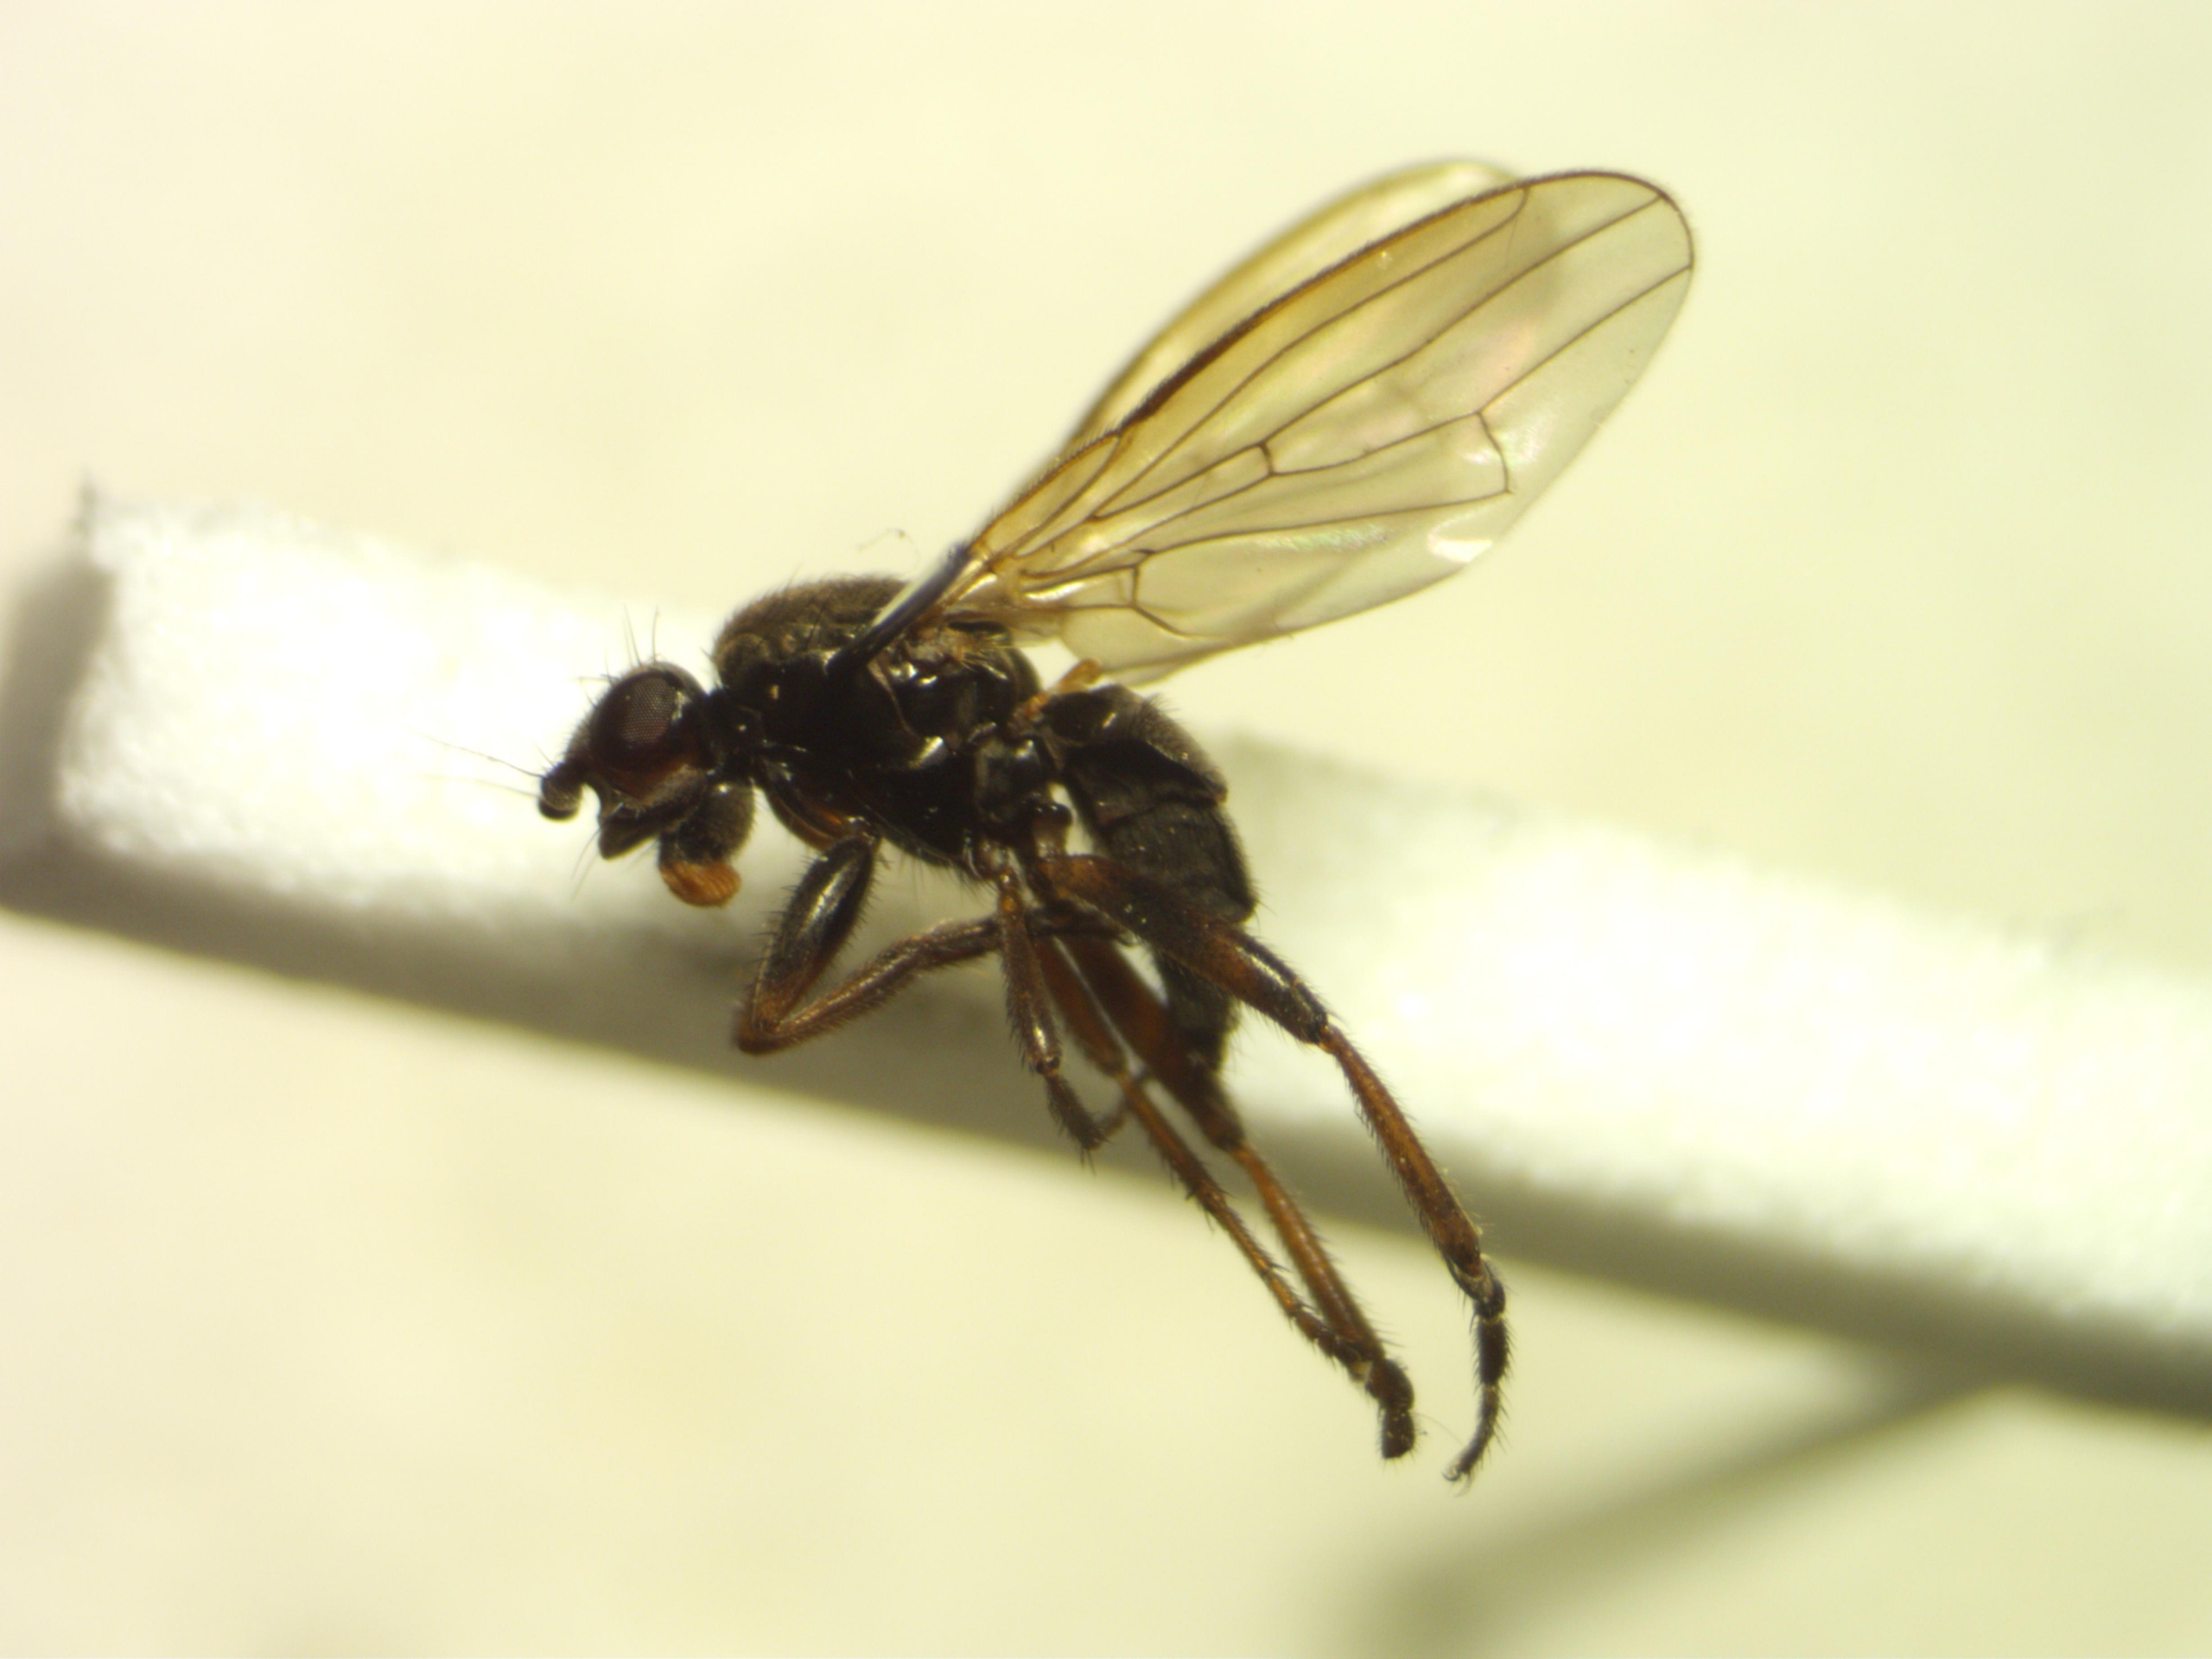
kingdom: Animalia
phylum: Arthropoda
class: Insecta
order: Diptera
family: Sphaeroceridae
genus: Copromyza
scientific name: Copromyza equina
